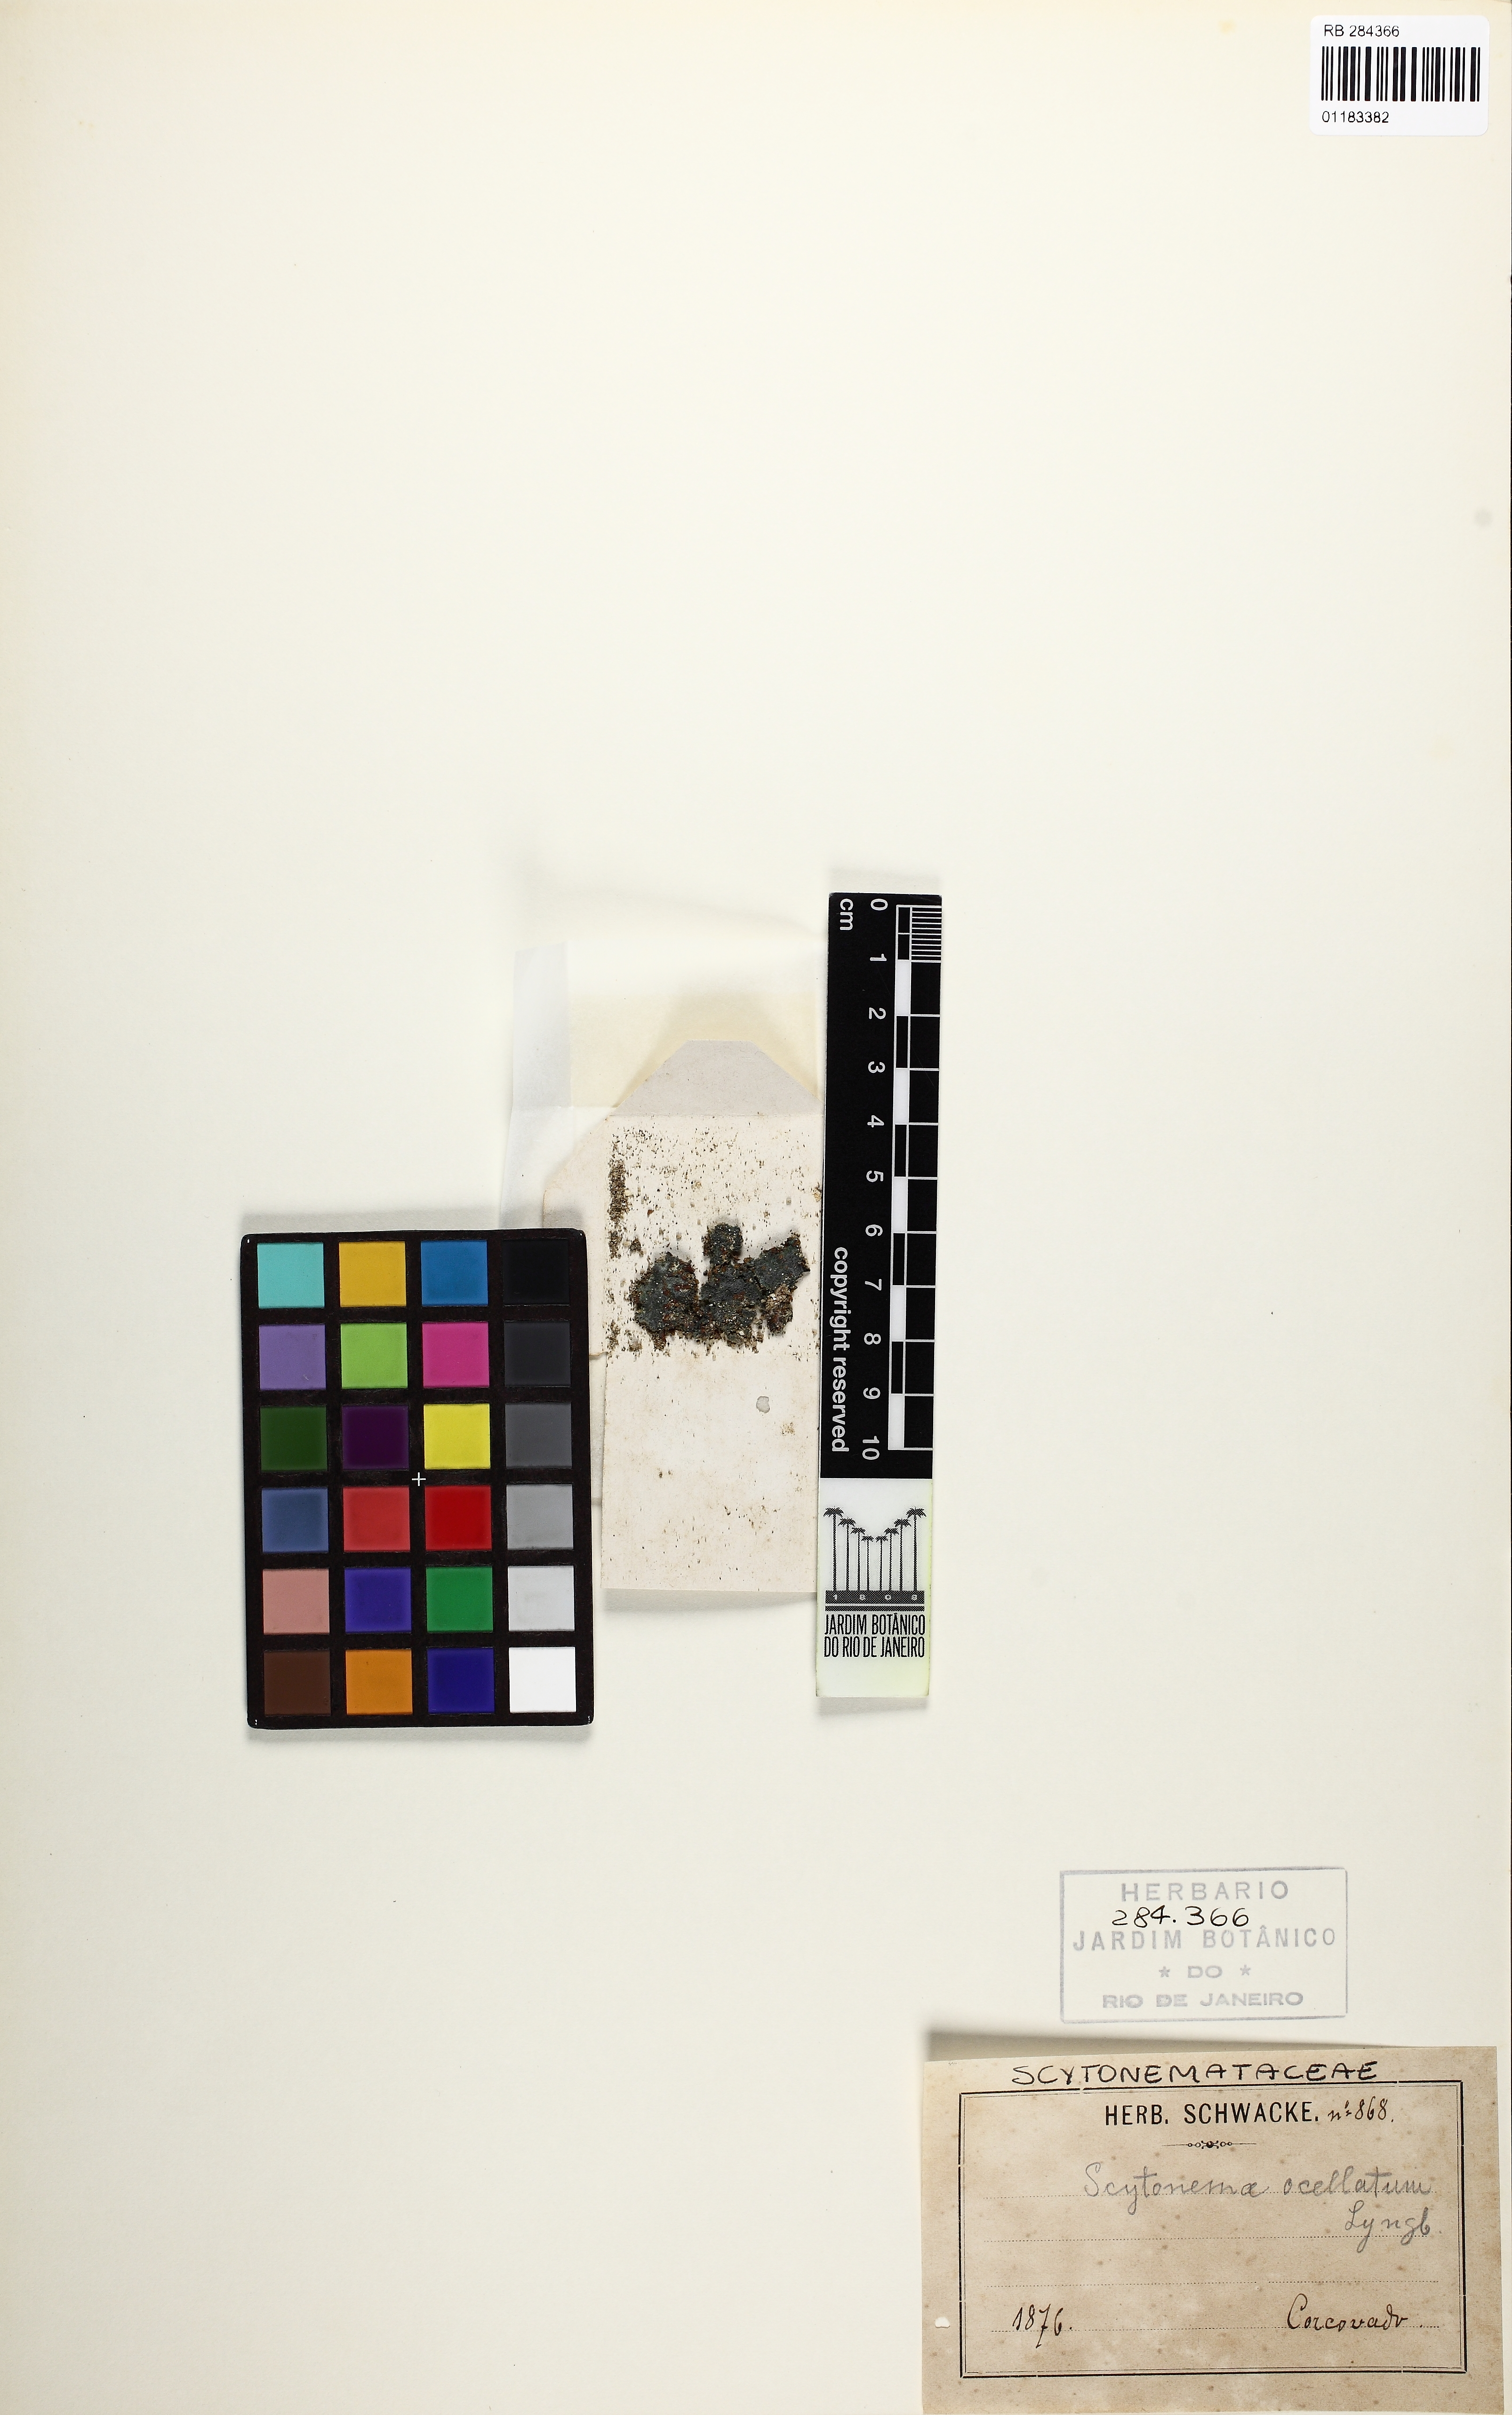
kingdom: Bacteria
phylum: Cyanobacteria
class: Cyanobacteriia
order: Cyanobacteriales
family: Scytonemataceae
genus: Scytonema
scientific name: Scytonema ocellatum
